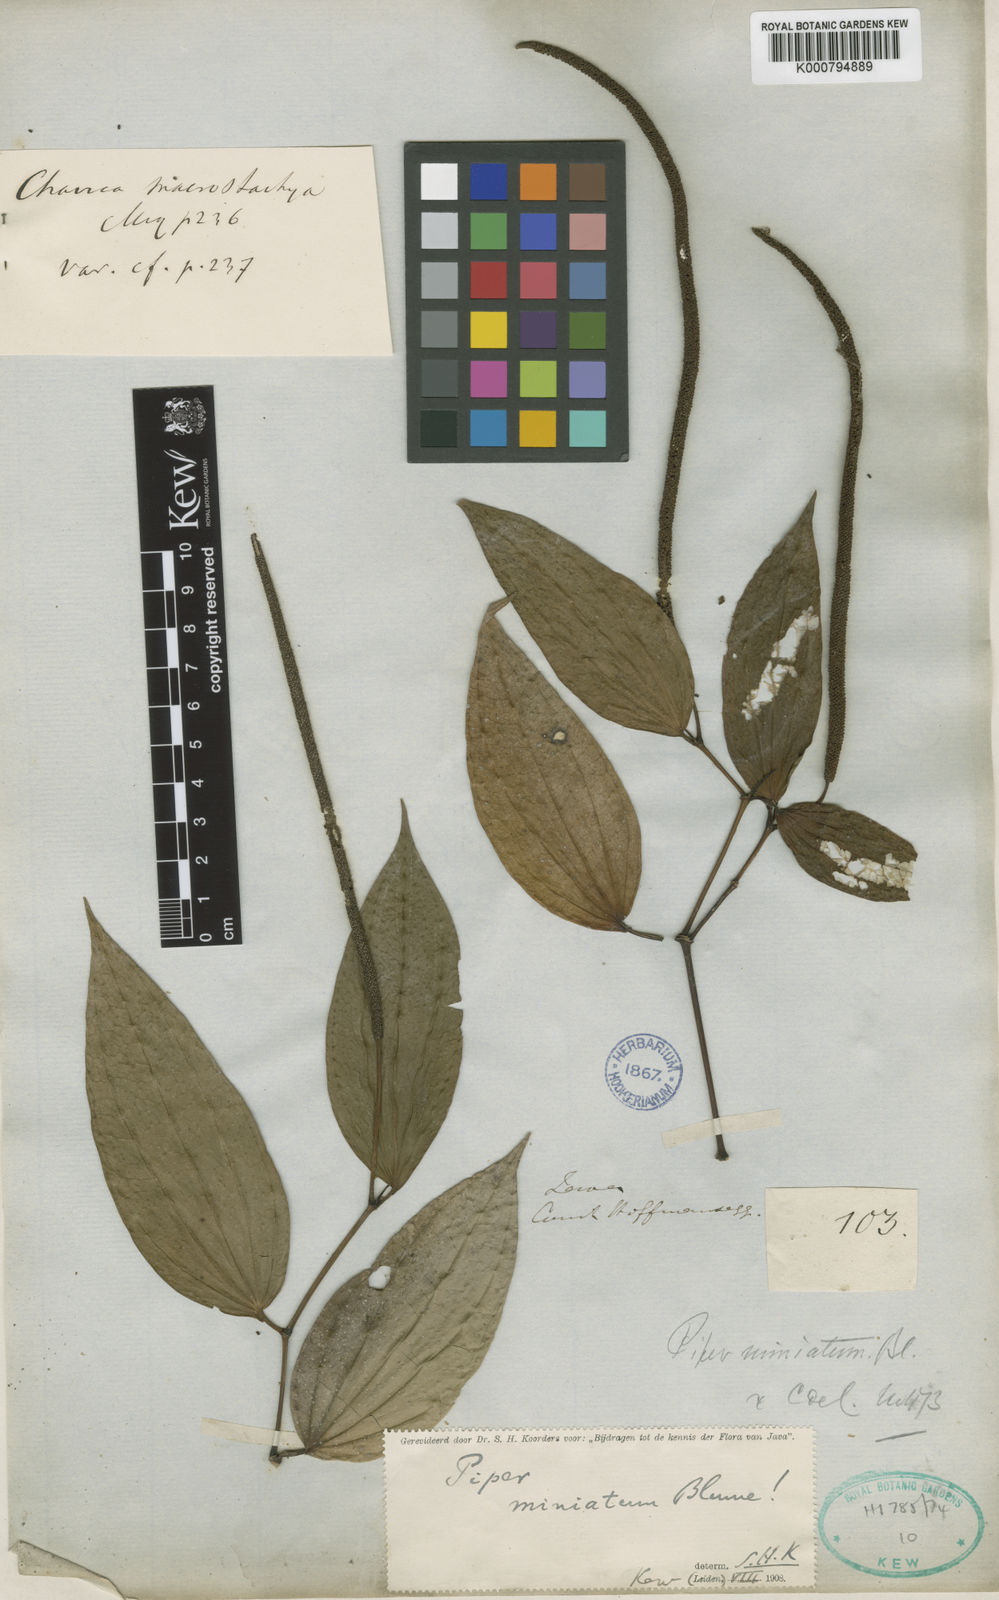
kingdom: Plantae
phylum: Tracheophyta
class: Magnoliopsida
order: Piperales
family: Piperaceae
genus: Piper
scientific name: Piper macropiper
